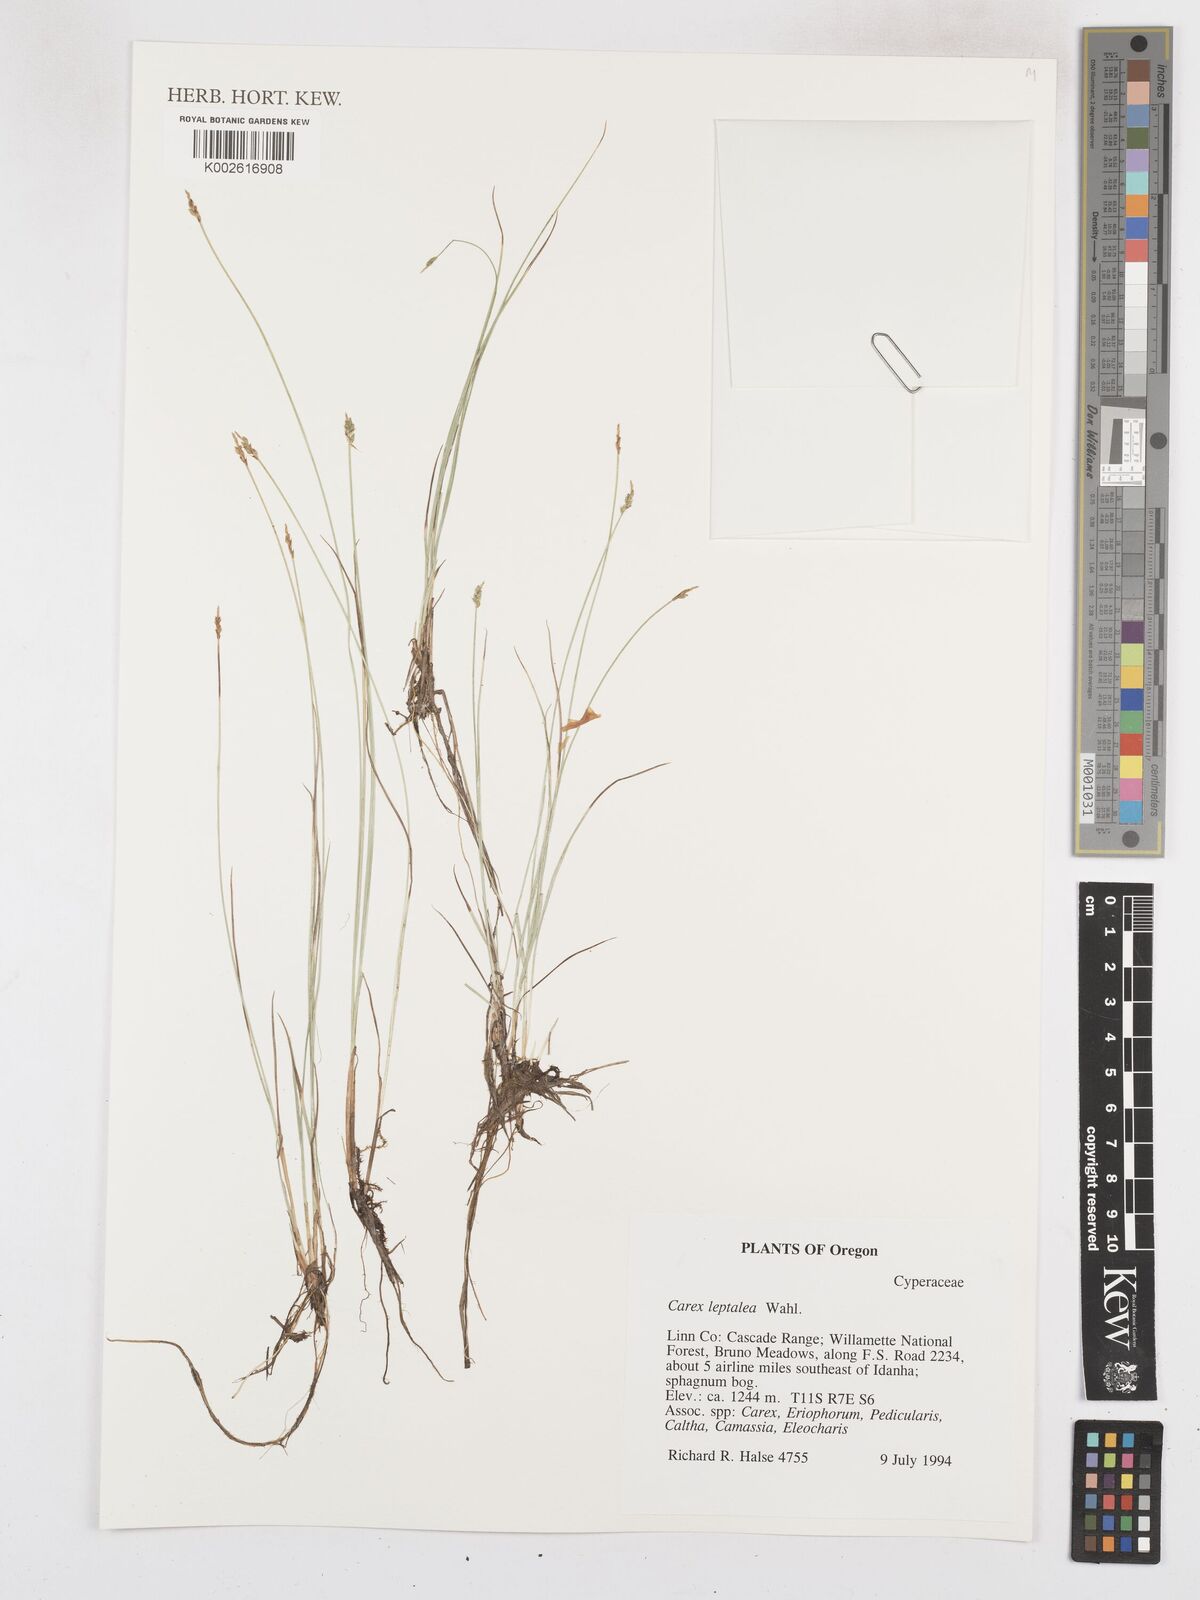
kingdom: Plantae
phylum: Tracheophyta
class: Liliopsida
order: Poales
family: Cyperaceae
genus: Carex
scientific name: Carex leptalea
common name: Bristly-stalked sedge
